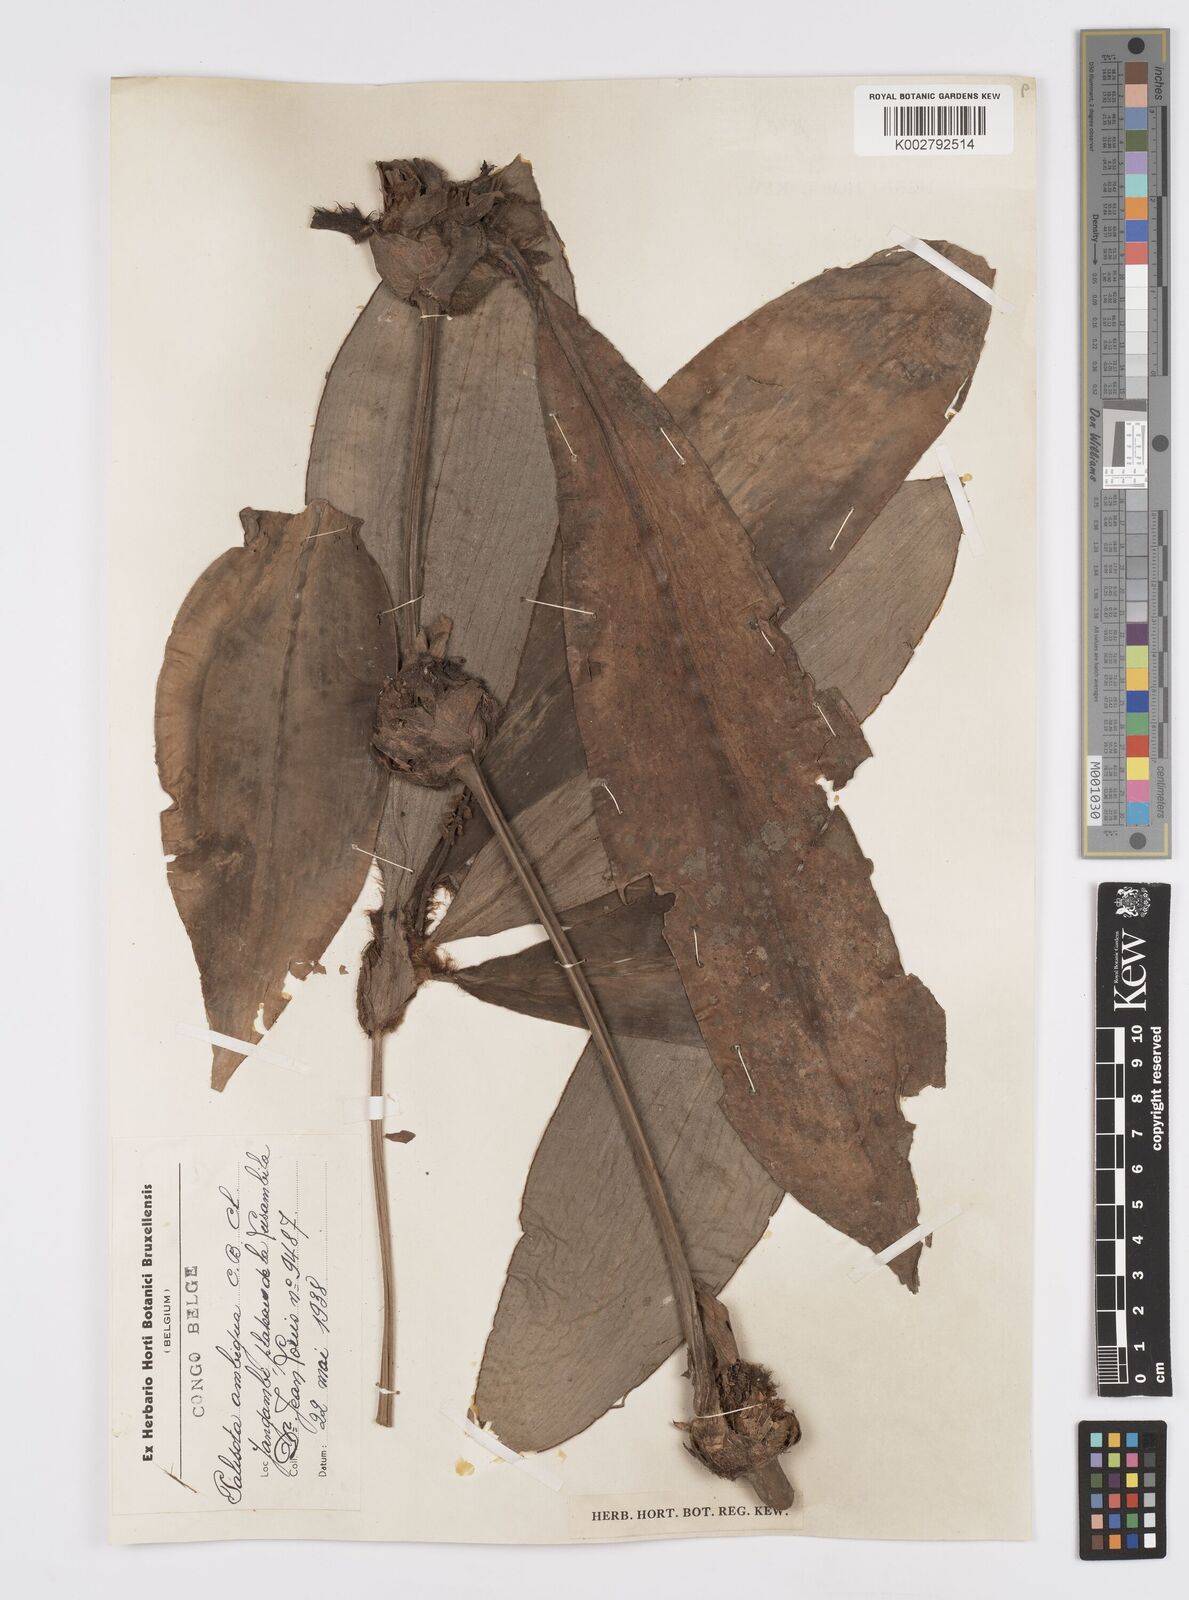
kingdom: Plantae
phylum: Tracheophyta
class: Liliopsida
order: Commelinales
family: Commelinaceae
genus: Palisota
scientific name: Palisota ambigua
